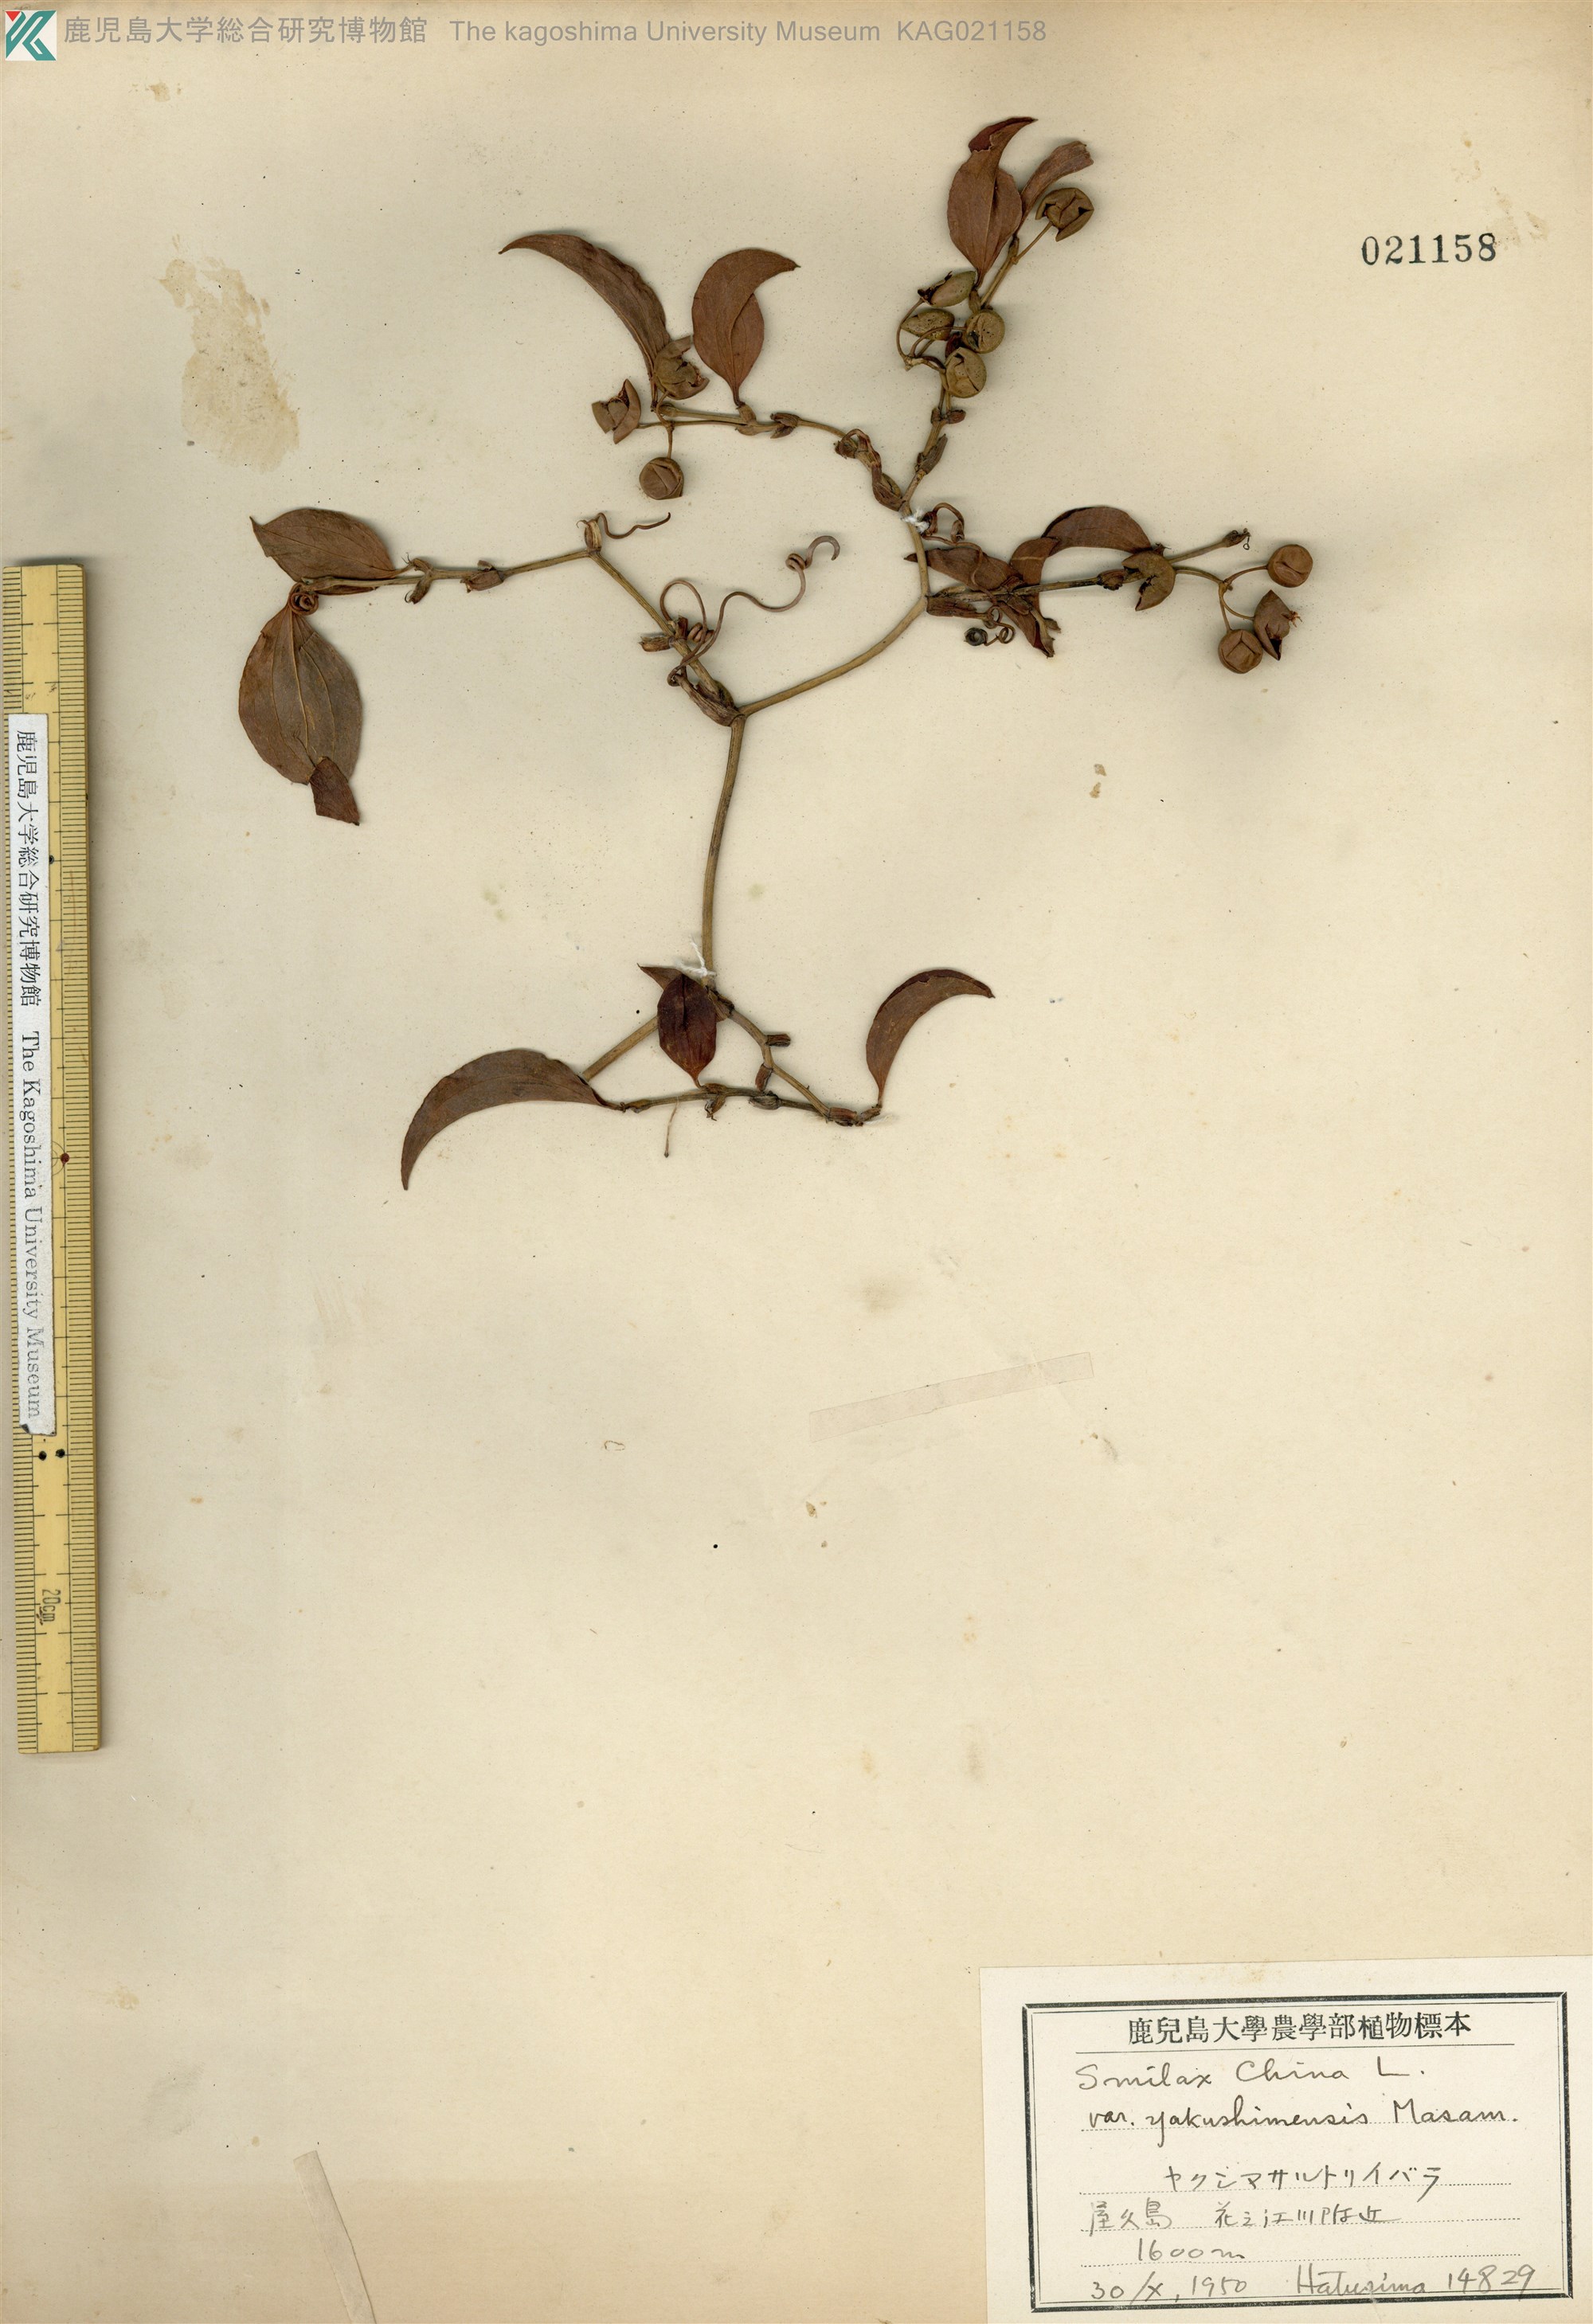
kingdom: Plantae
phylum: Tracheophyta
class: Liliopsida
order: Liliales
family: Smilacaceae
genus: Smilax
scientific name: Smilax china
